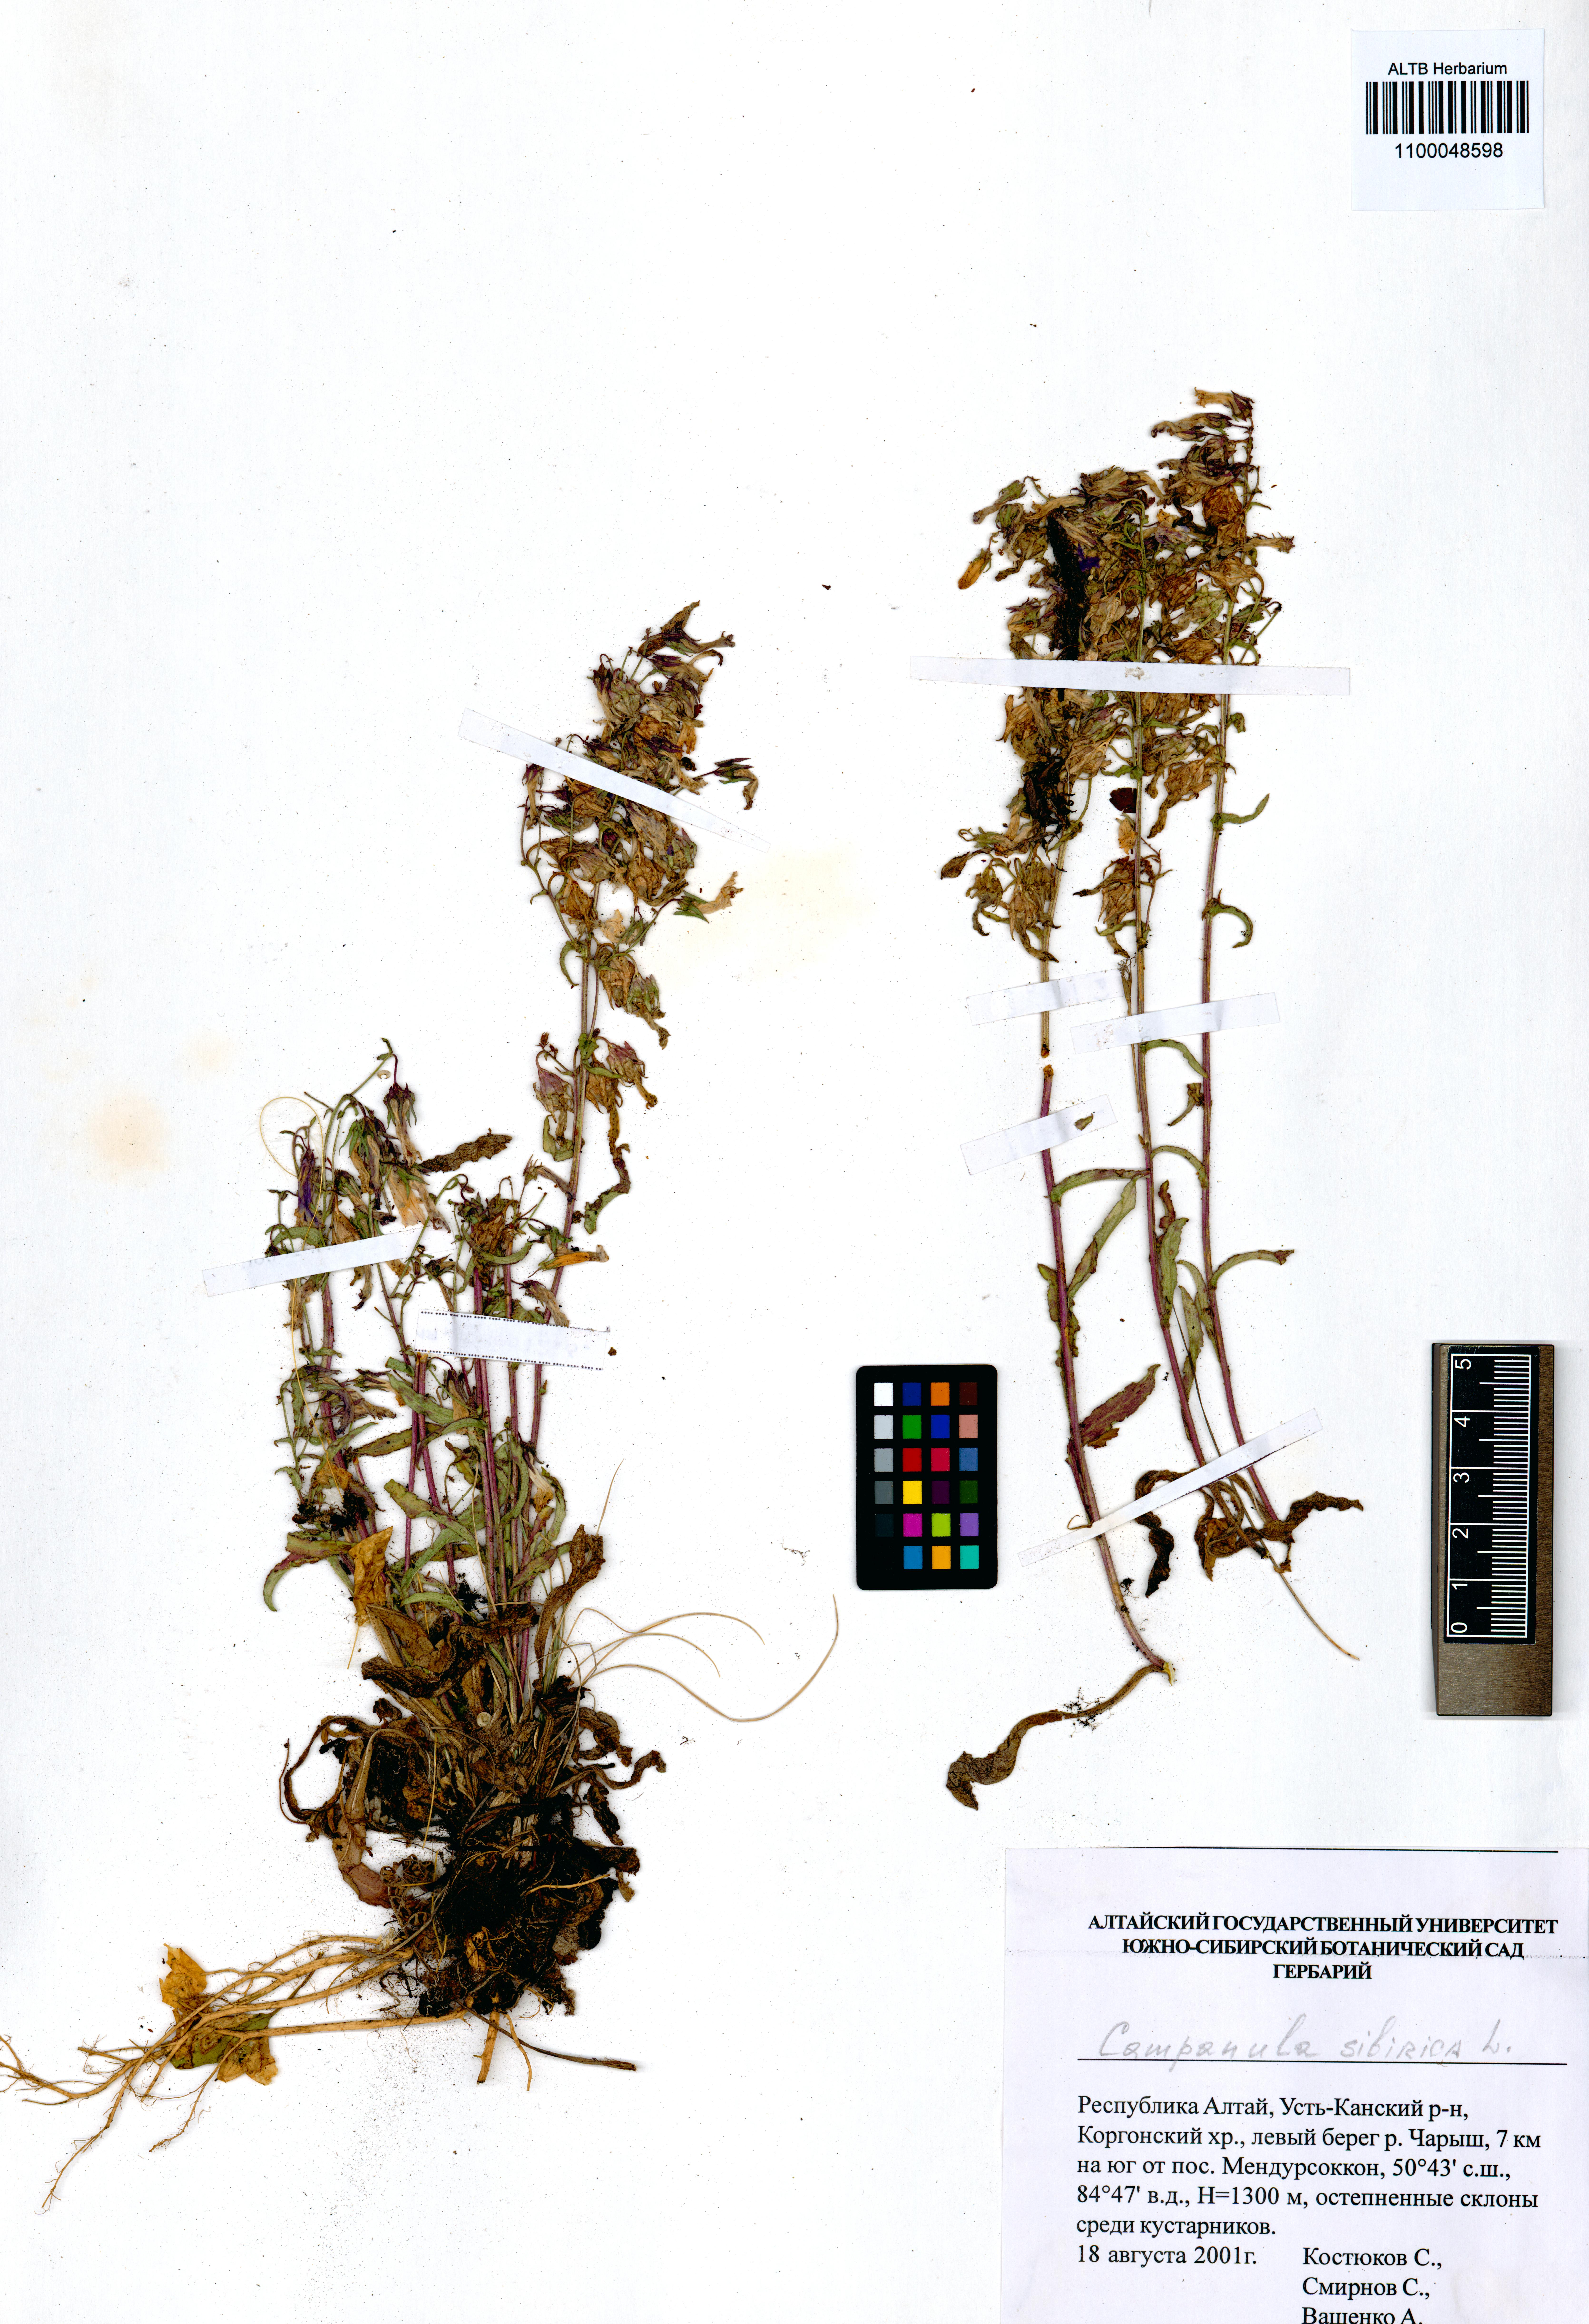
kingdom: Plantae
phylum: Tracheophyta
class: Magnoliopsida
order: Asterales
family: Campanulaceae
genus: Campanula
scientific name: Campanula sibirica
